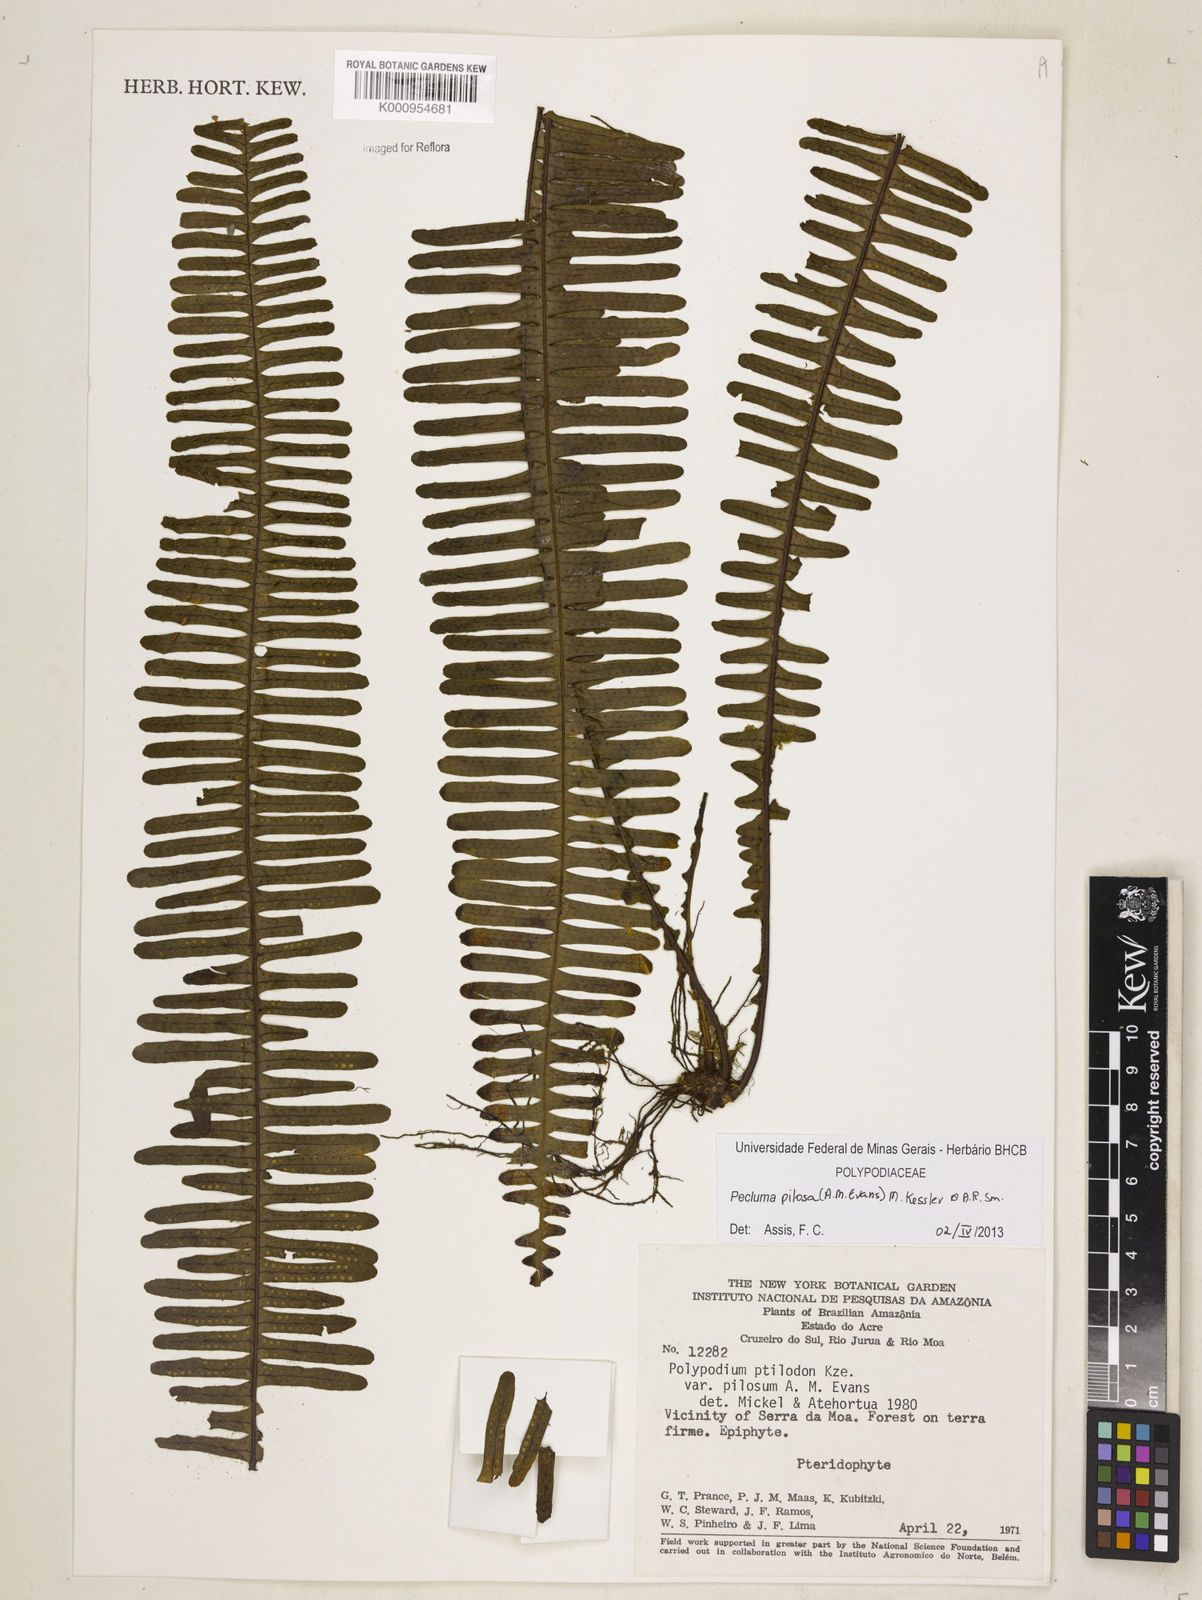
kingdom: Plantae
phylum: Tracheophyta
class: Polypodiopsida
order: Polypodiales
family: Polypodiaceae
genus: Pecluma
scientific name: Pecluma pilosa
